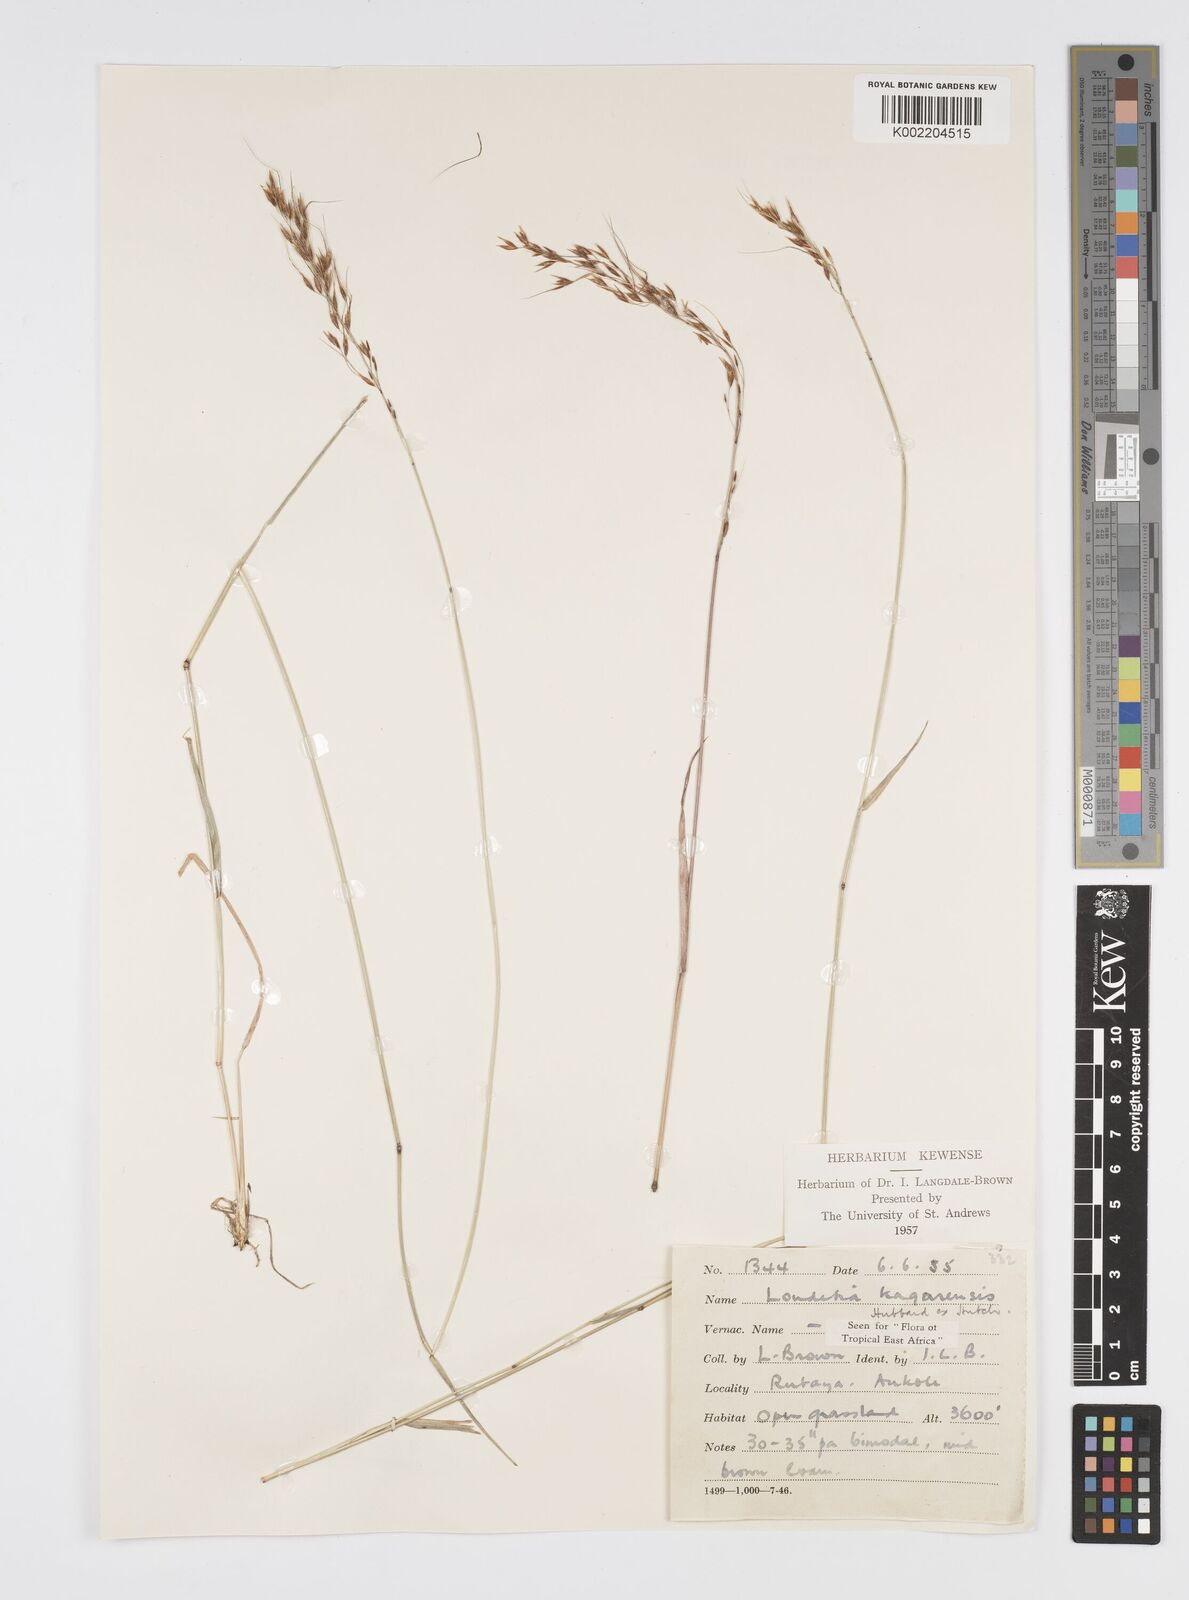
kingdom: Plantae
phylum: Tracheophyta
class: Liliopsida
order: Poales
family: Poaceae
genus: Loudetia
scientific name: Loudetia kagerensis
